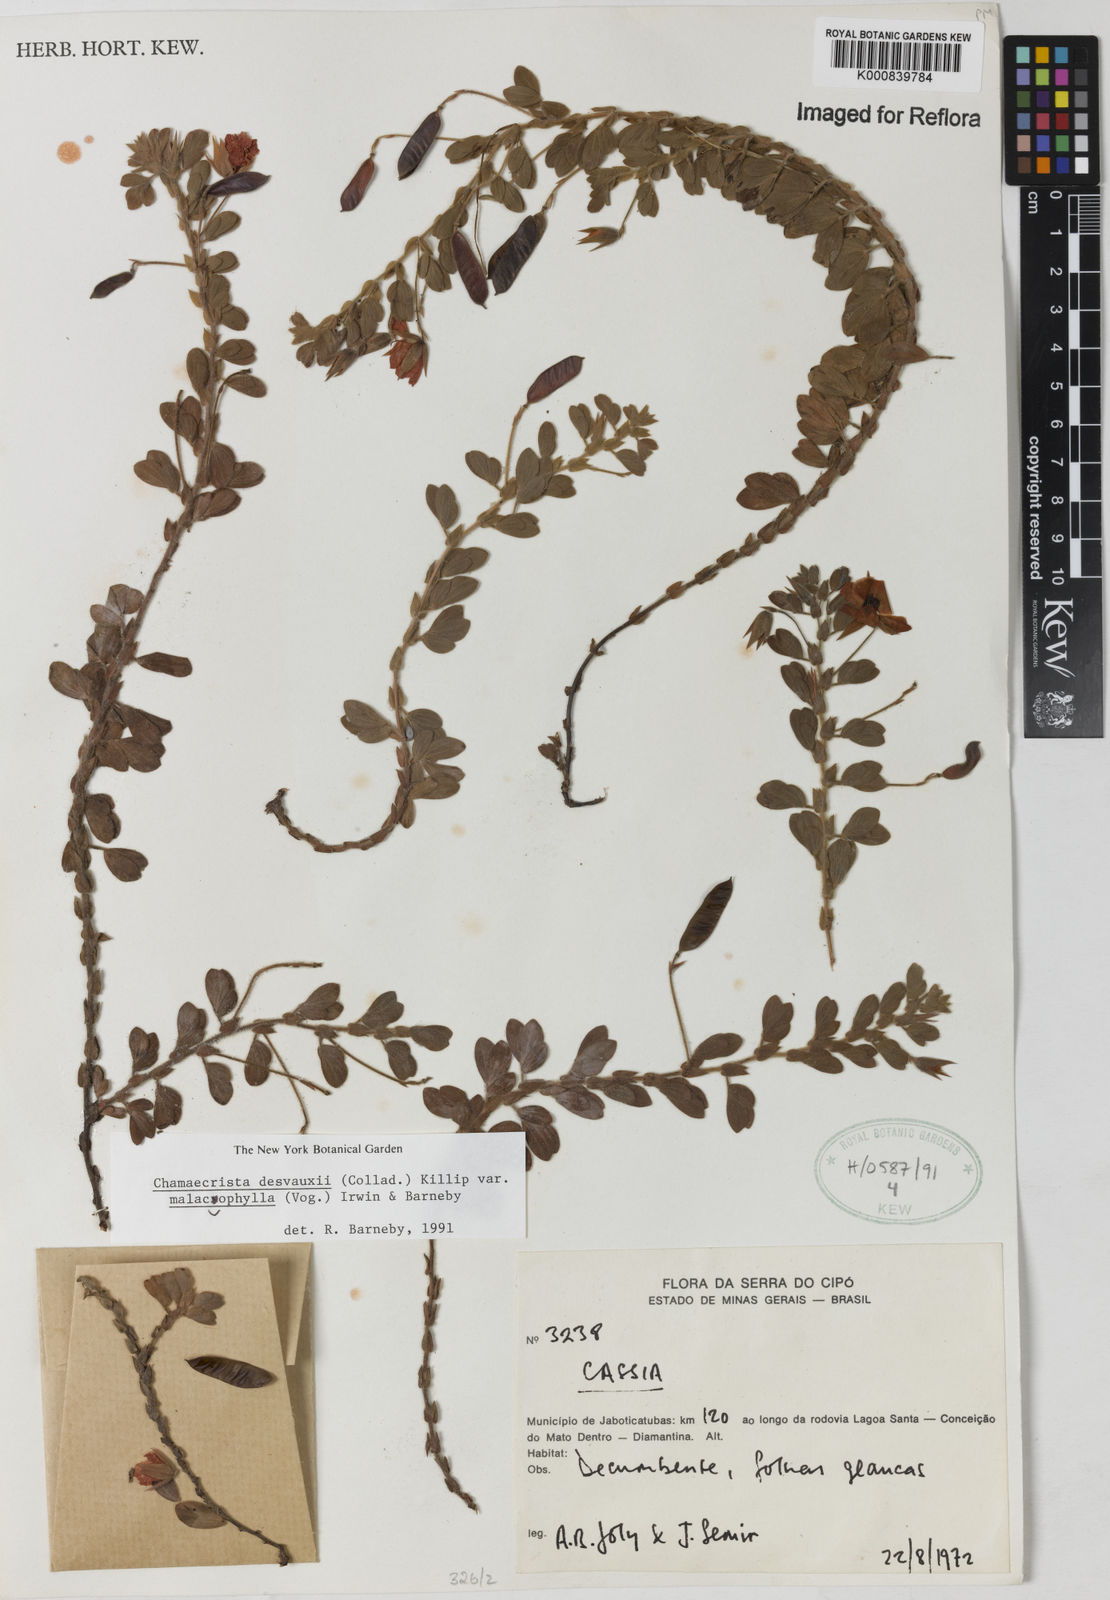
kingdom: Plantae
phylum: Tracheophyta
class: Magnoliopsida
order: Fabales
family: Fabaceae
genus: Chamaecrista
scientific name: Chamaecrista desvauxii
